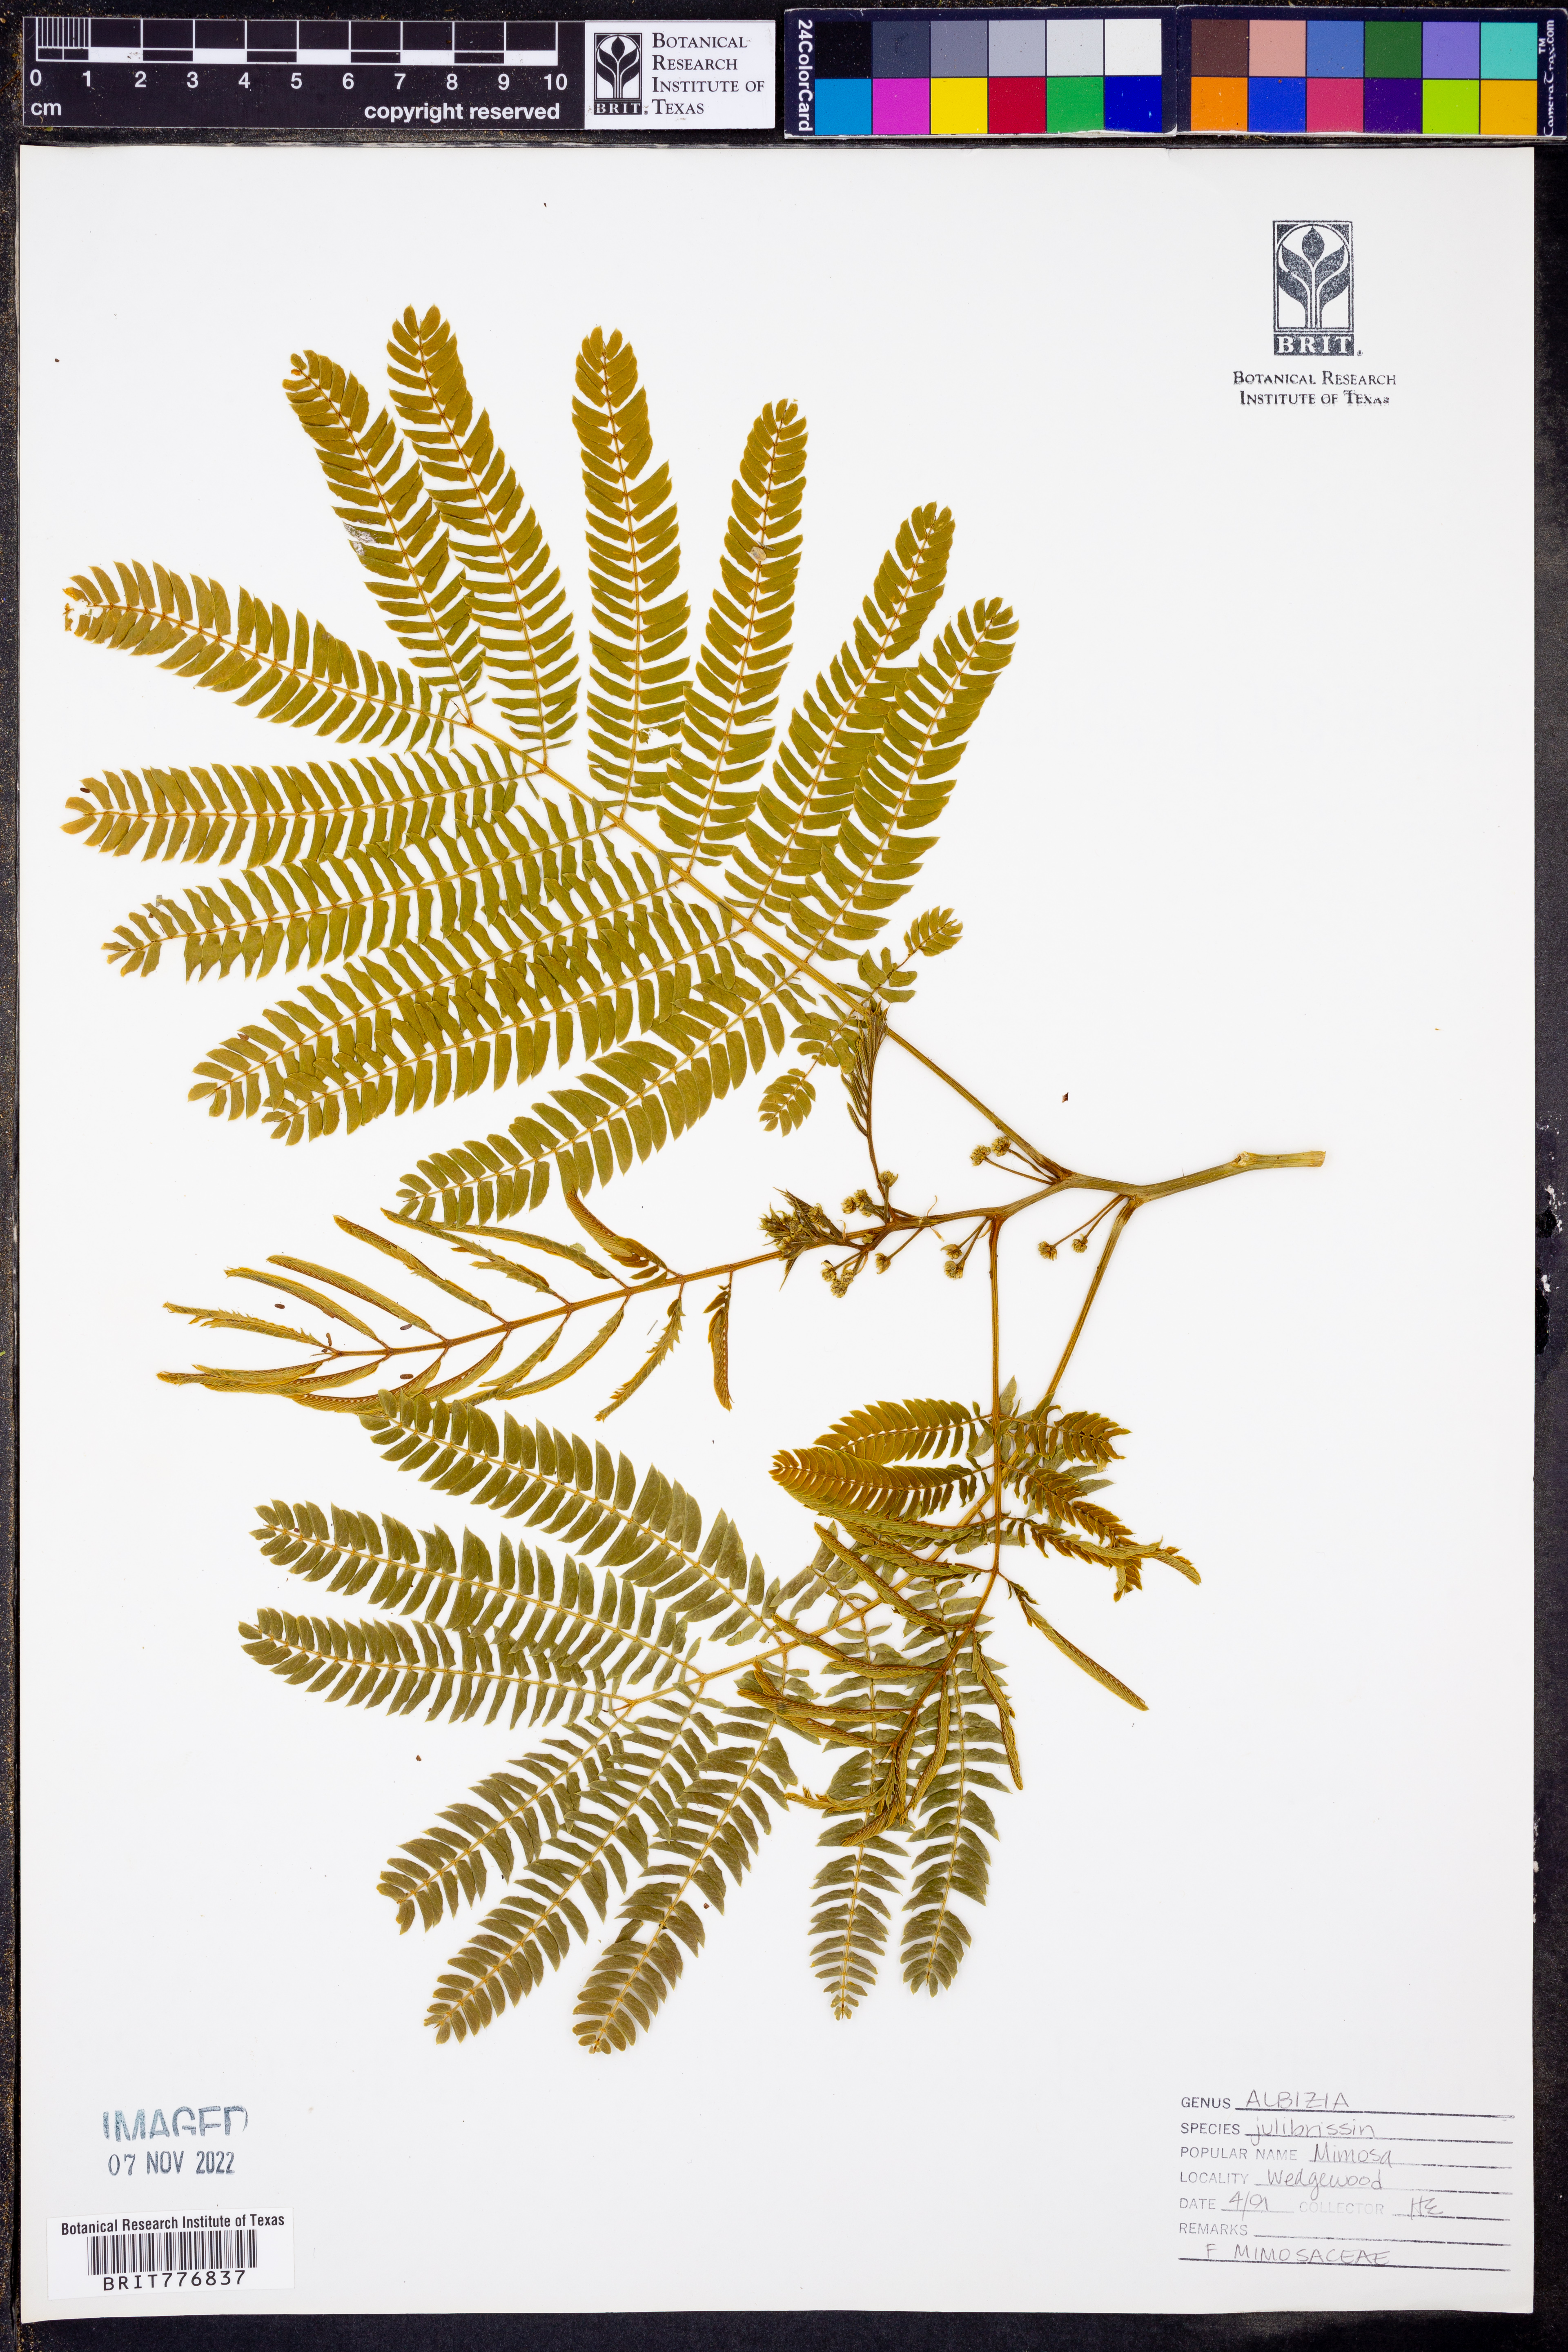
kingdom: Plantae
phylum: Tracheophyta
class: Magnoliopsida
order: Fabales
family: Fabaceae
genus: Albizia
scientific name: Albizia julibrissin
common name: Silktree
